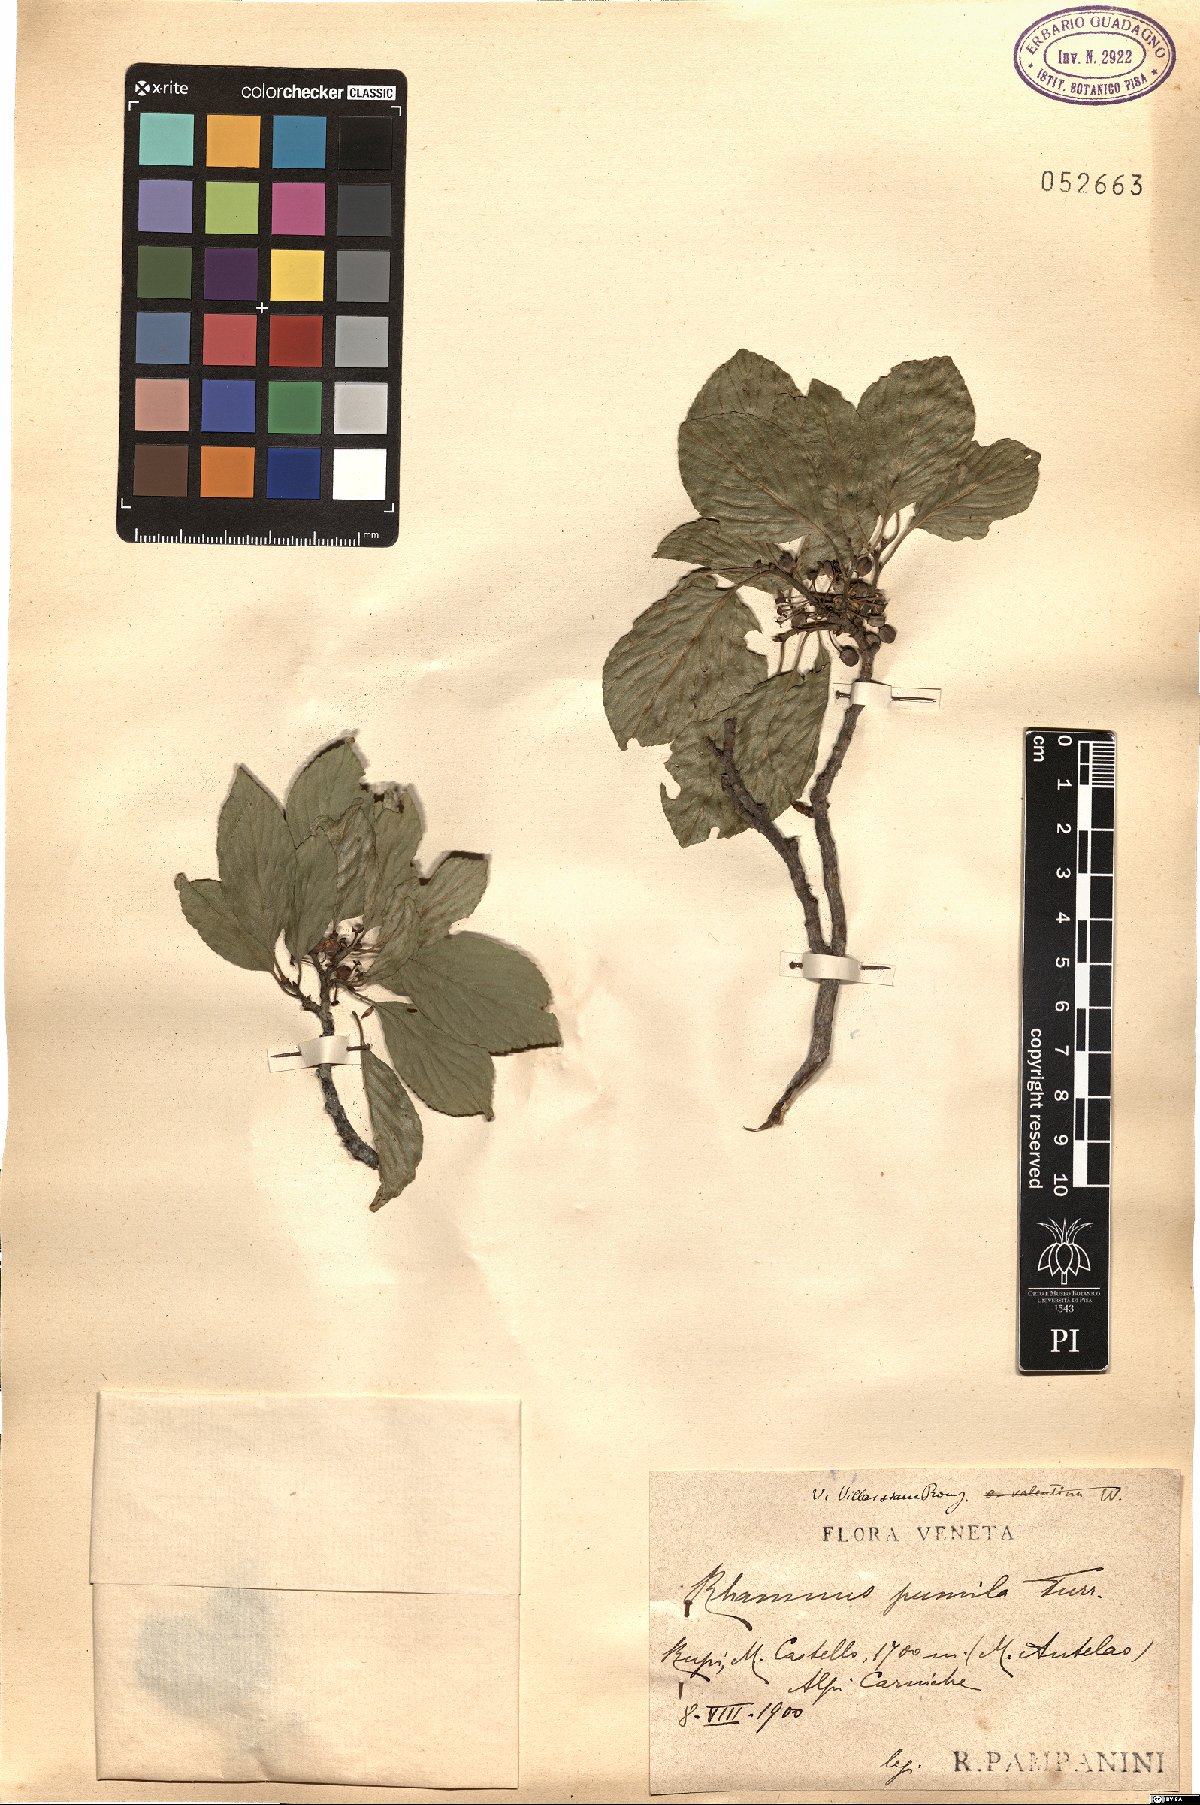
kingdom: Plantae
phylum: Tracheophyta
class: Magnoliopsida
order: Rosales
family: Rhamnaceae
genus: Atadinus
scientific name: Atadinus pumilus
